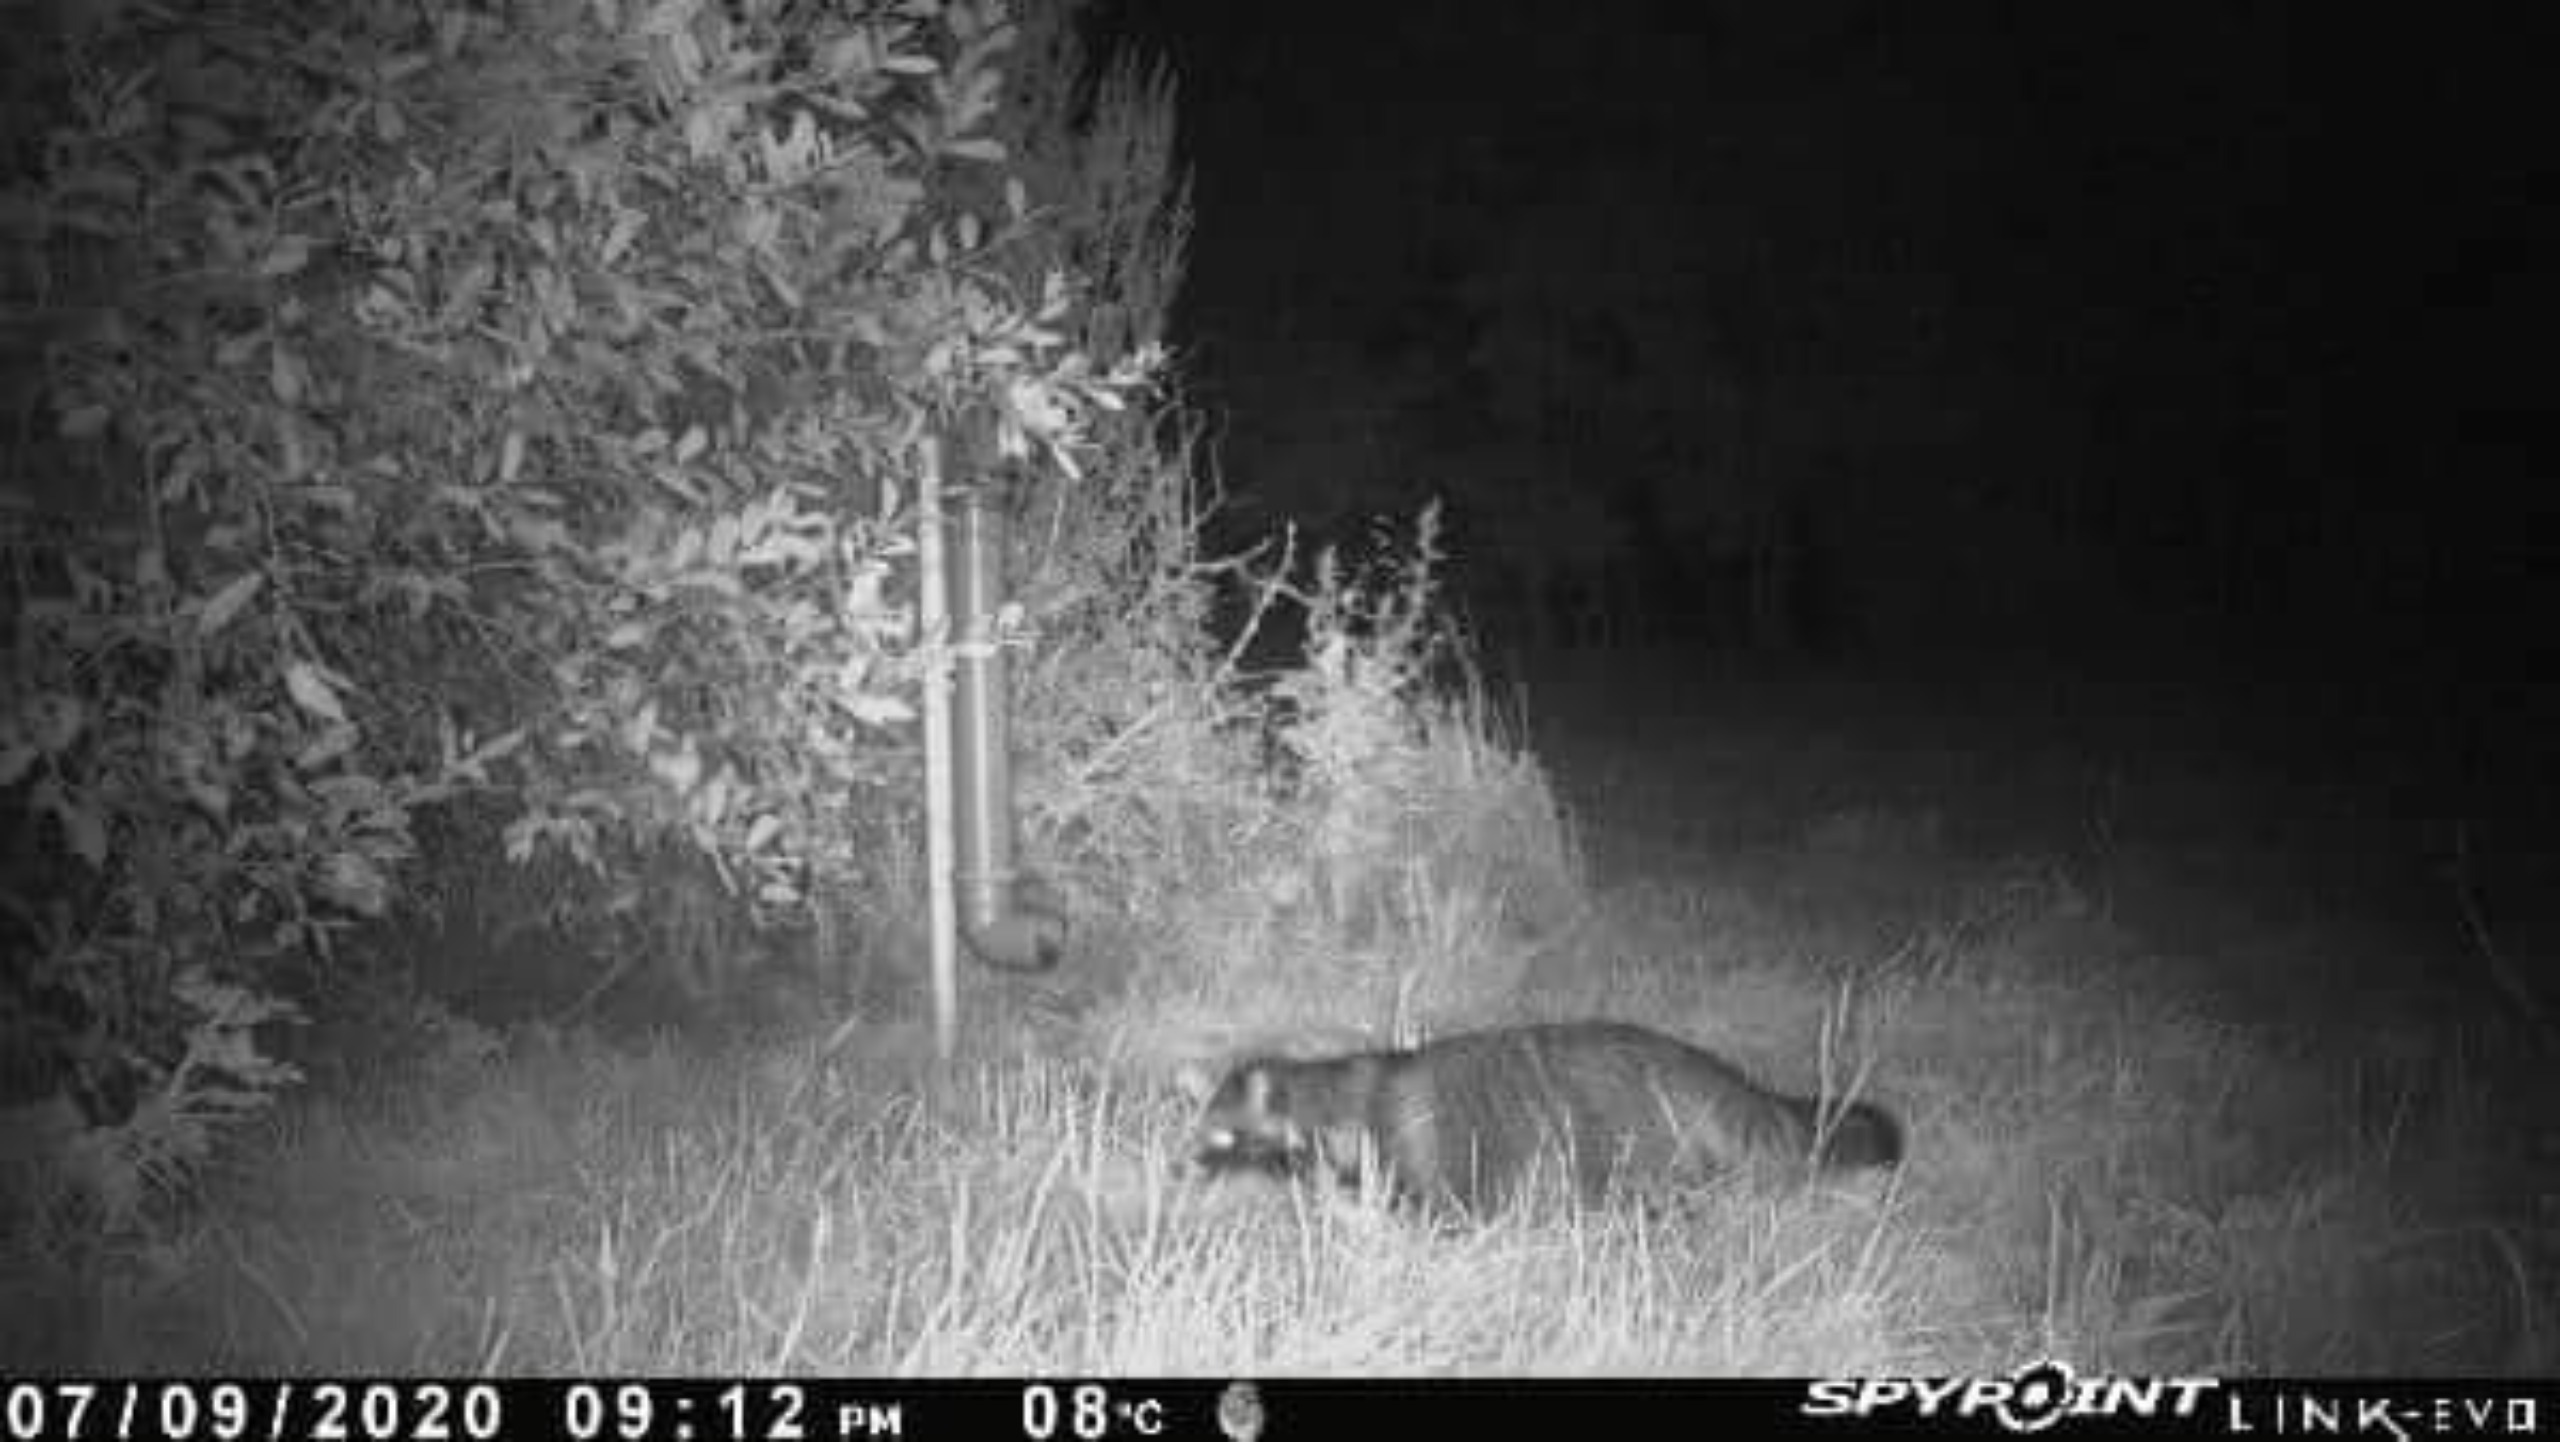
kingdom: Animalia
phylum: Chordata
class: Mammalia
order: Carnivora
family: Canidae
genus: Nyctereutes
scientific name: Nyctereutes procyonoides
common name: Mårhund
